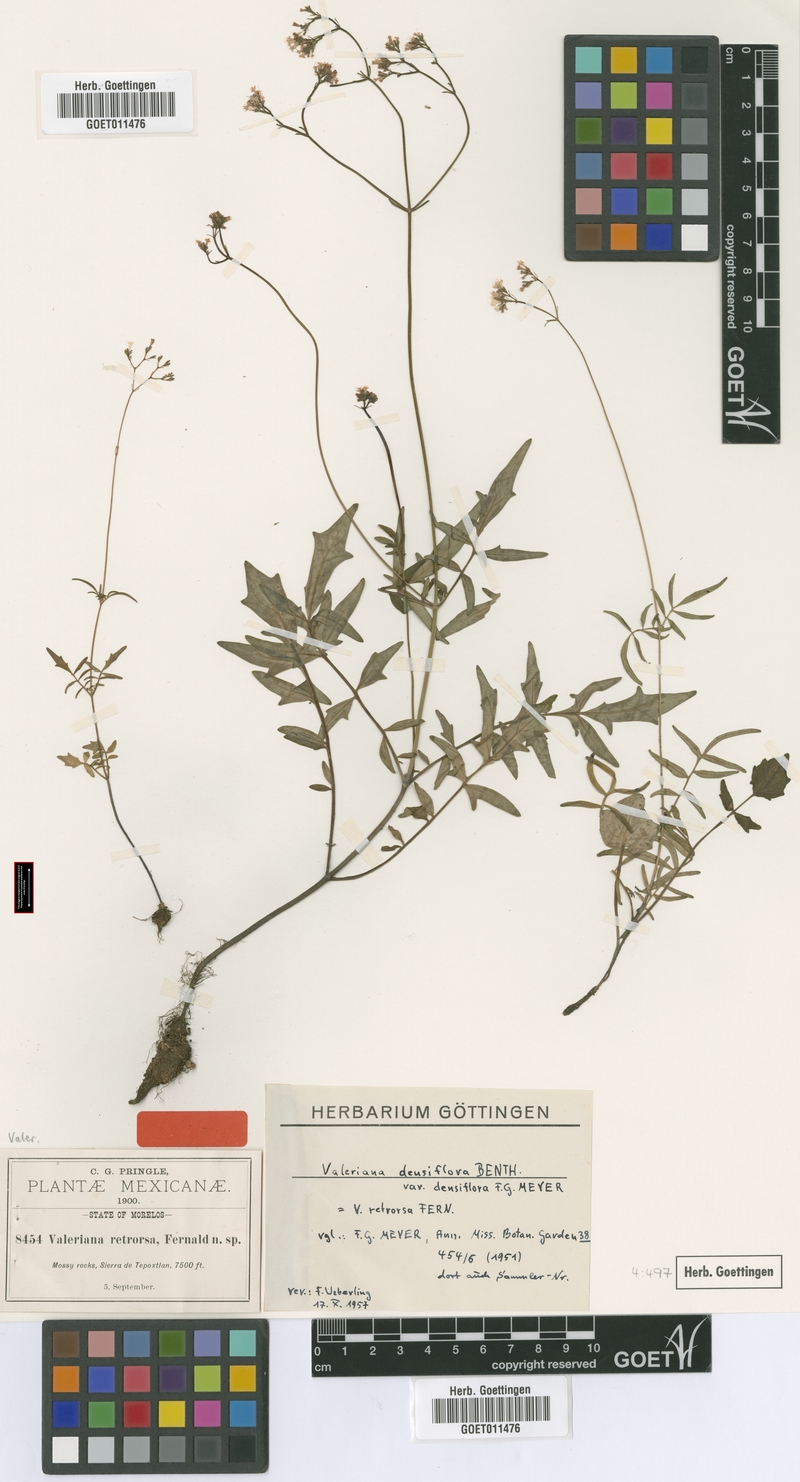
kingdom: Plantae
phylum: Tracheophyta
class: Magnoliopsida
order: Dipsacales
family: Caprifoliaceae
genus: Valeriana
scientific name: Valeriana densiflora
